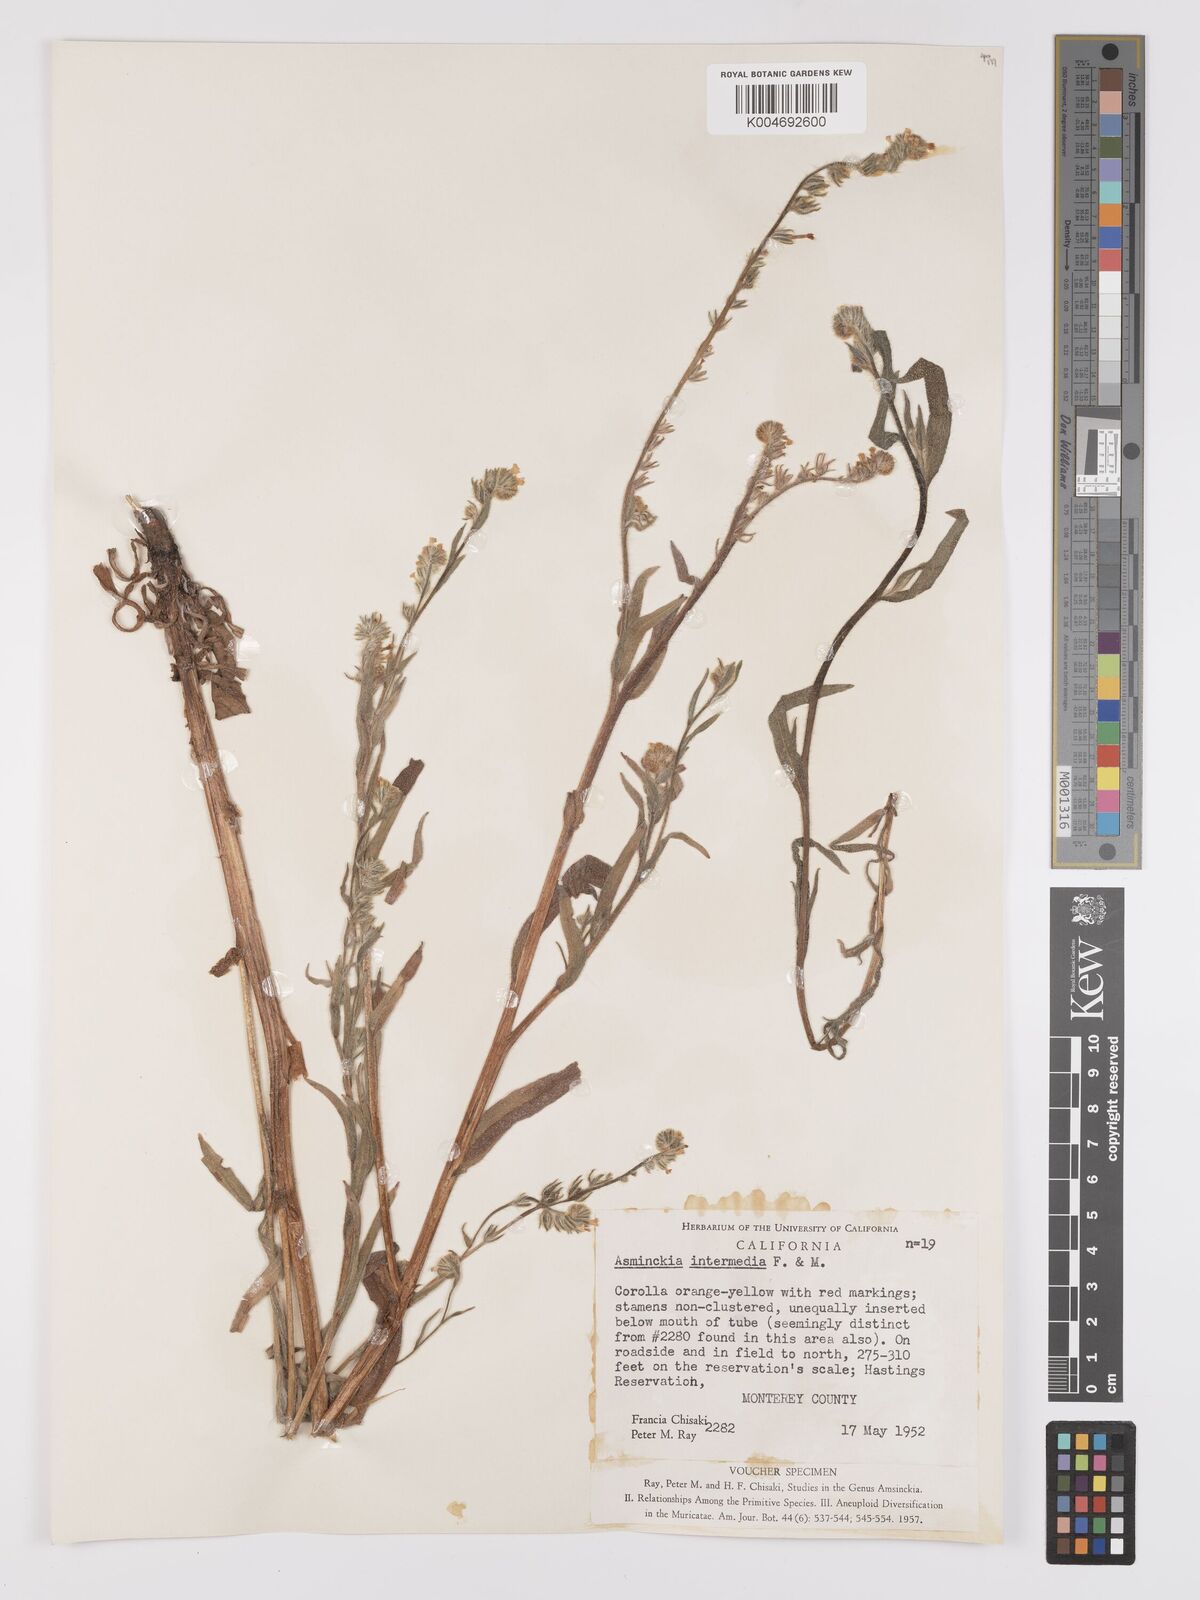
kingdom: Plantae
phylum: Tracheophyta
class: Magnoliopsida
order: Boraginales
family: Boraginaceae
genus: Amsinckia
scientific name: Amsinckia menziesii
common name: Menzies' fiddleneck
